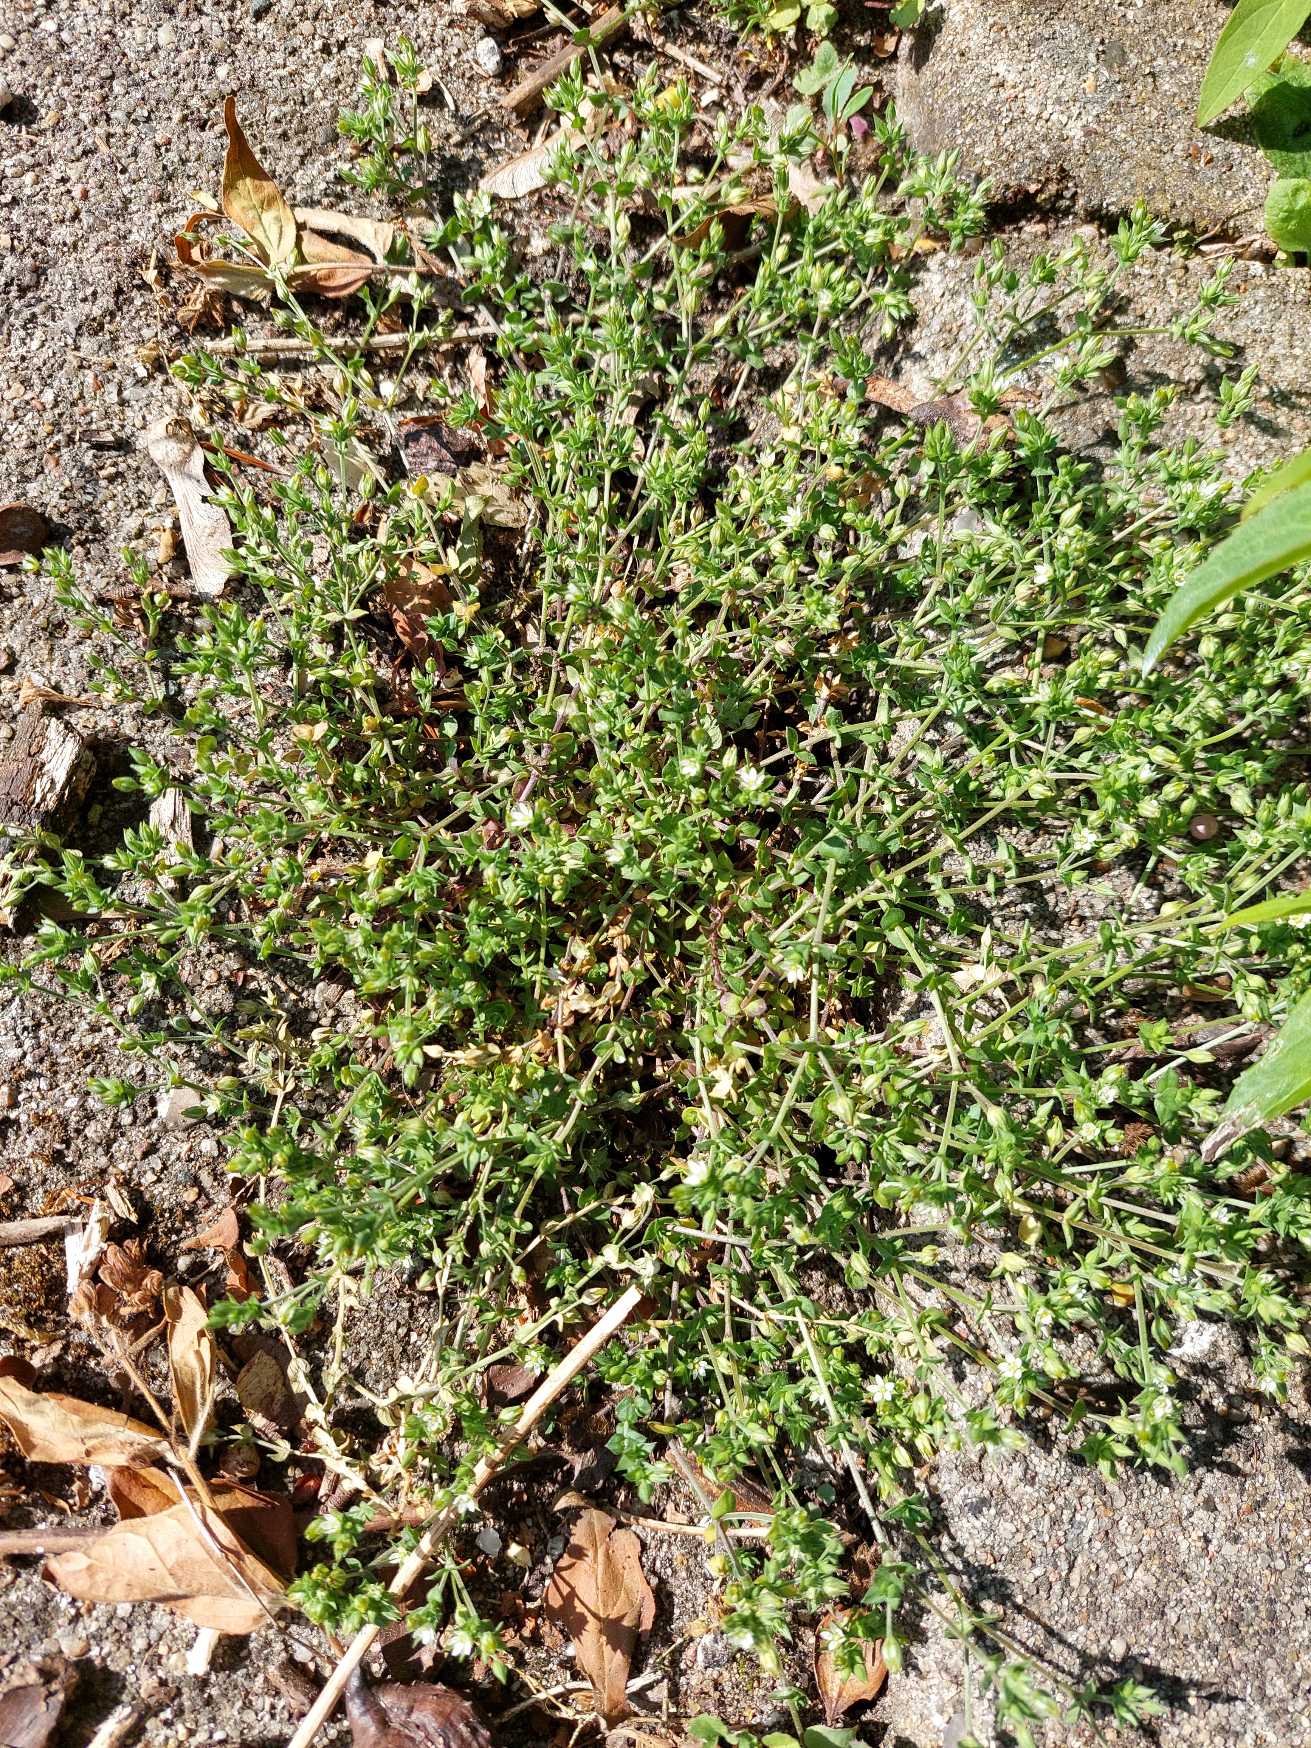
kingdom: Plantae
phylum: Tracheophyta
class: Magnoliopsida
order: Caryophyllales
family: Caryophyllaceae
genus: Arenaria
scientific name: Arenaria serpyllifolia
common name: Almindelig markarve
